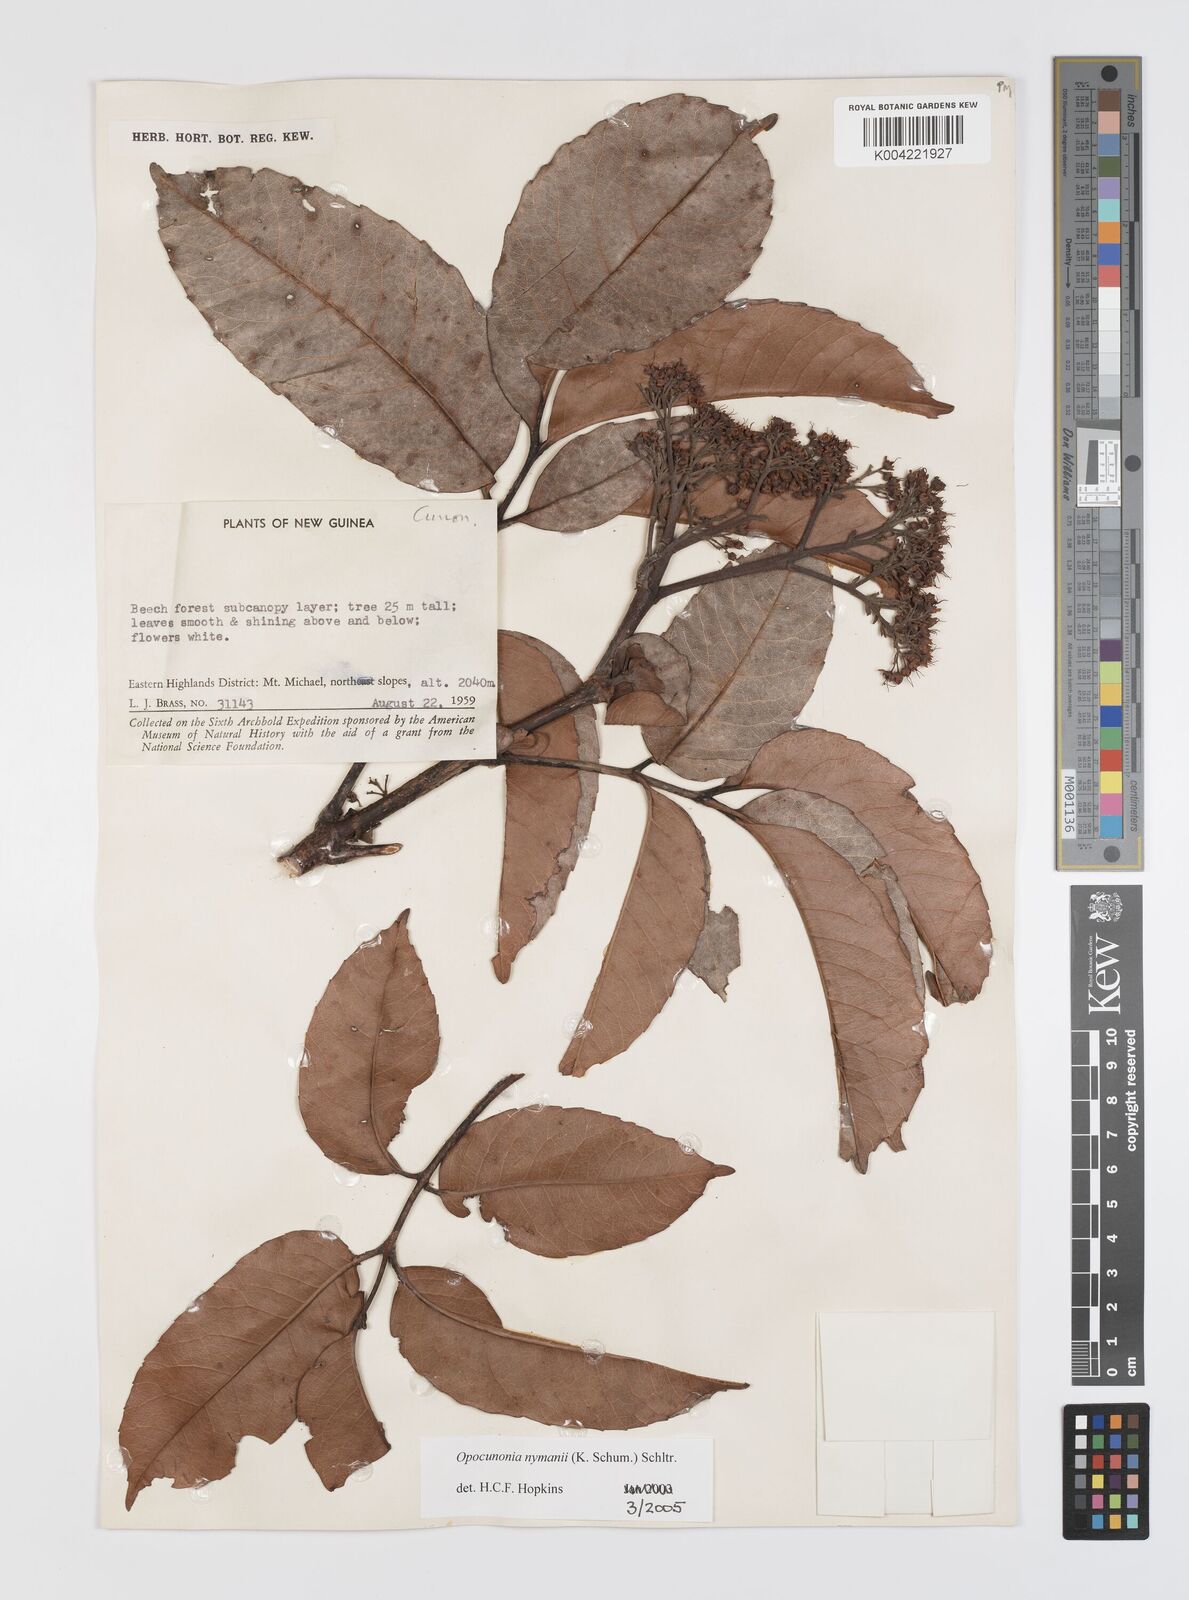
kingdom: Plantae
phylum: Tracheophyta
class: Magnoliopsida
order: Oxalidales
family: Cunoniaceae
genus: Opocunonia
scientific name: Opocunonia nymanii
